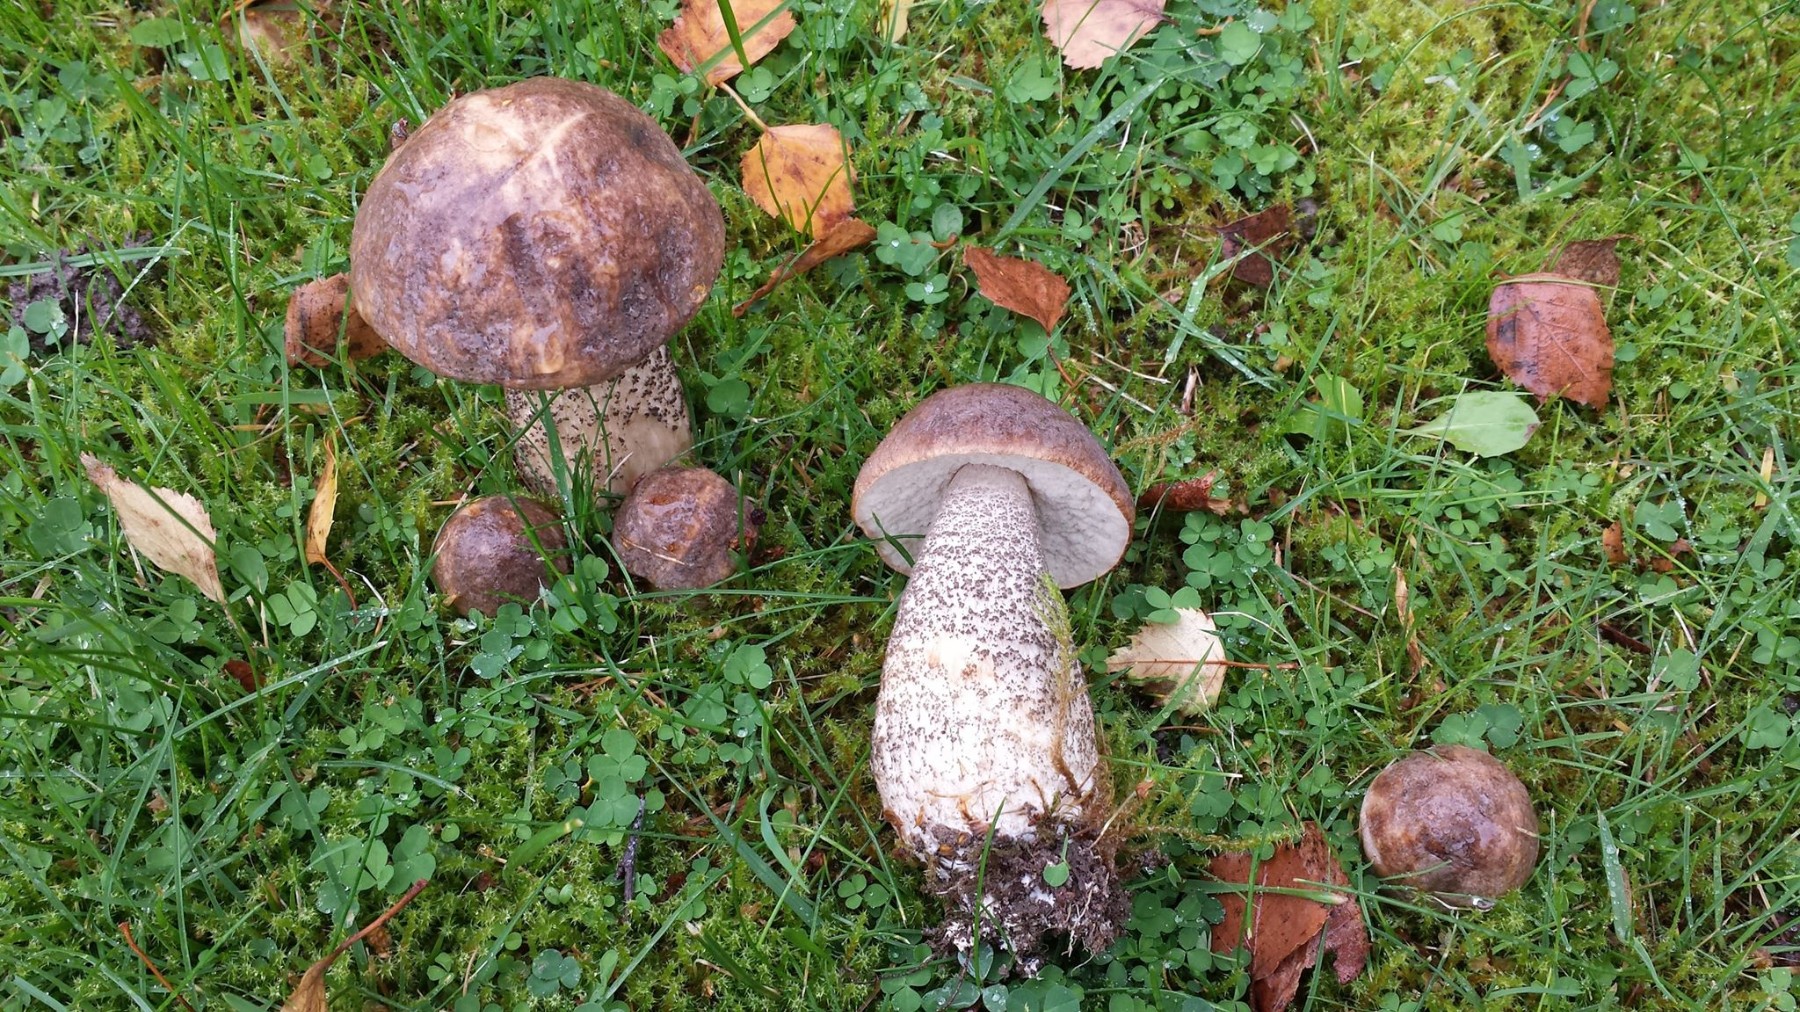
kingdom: Fungi
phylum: Basidiomycota
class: Agaricomycetes
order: Boletales
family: Boletaceae
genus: Leccinum
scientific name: Leccinum scabrum
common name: brun skælrørhat
